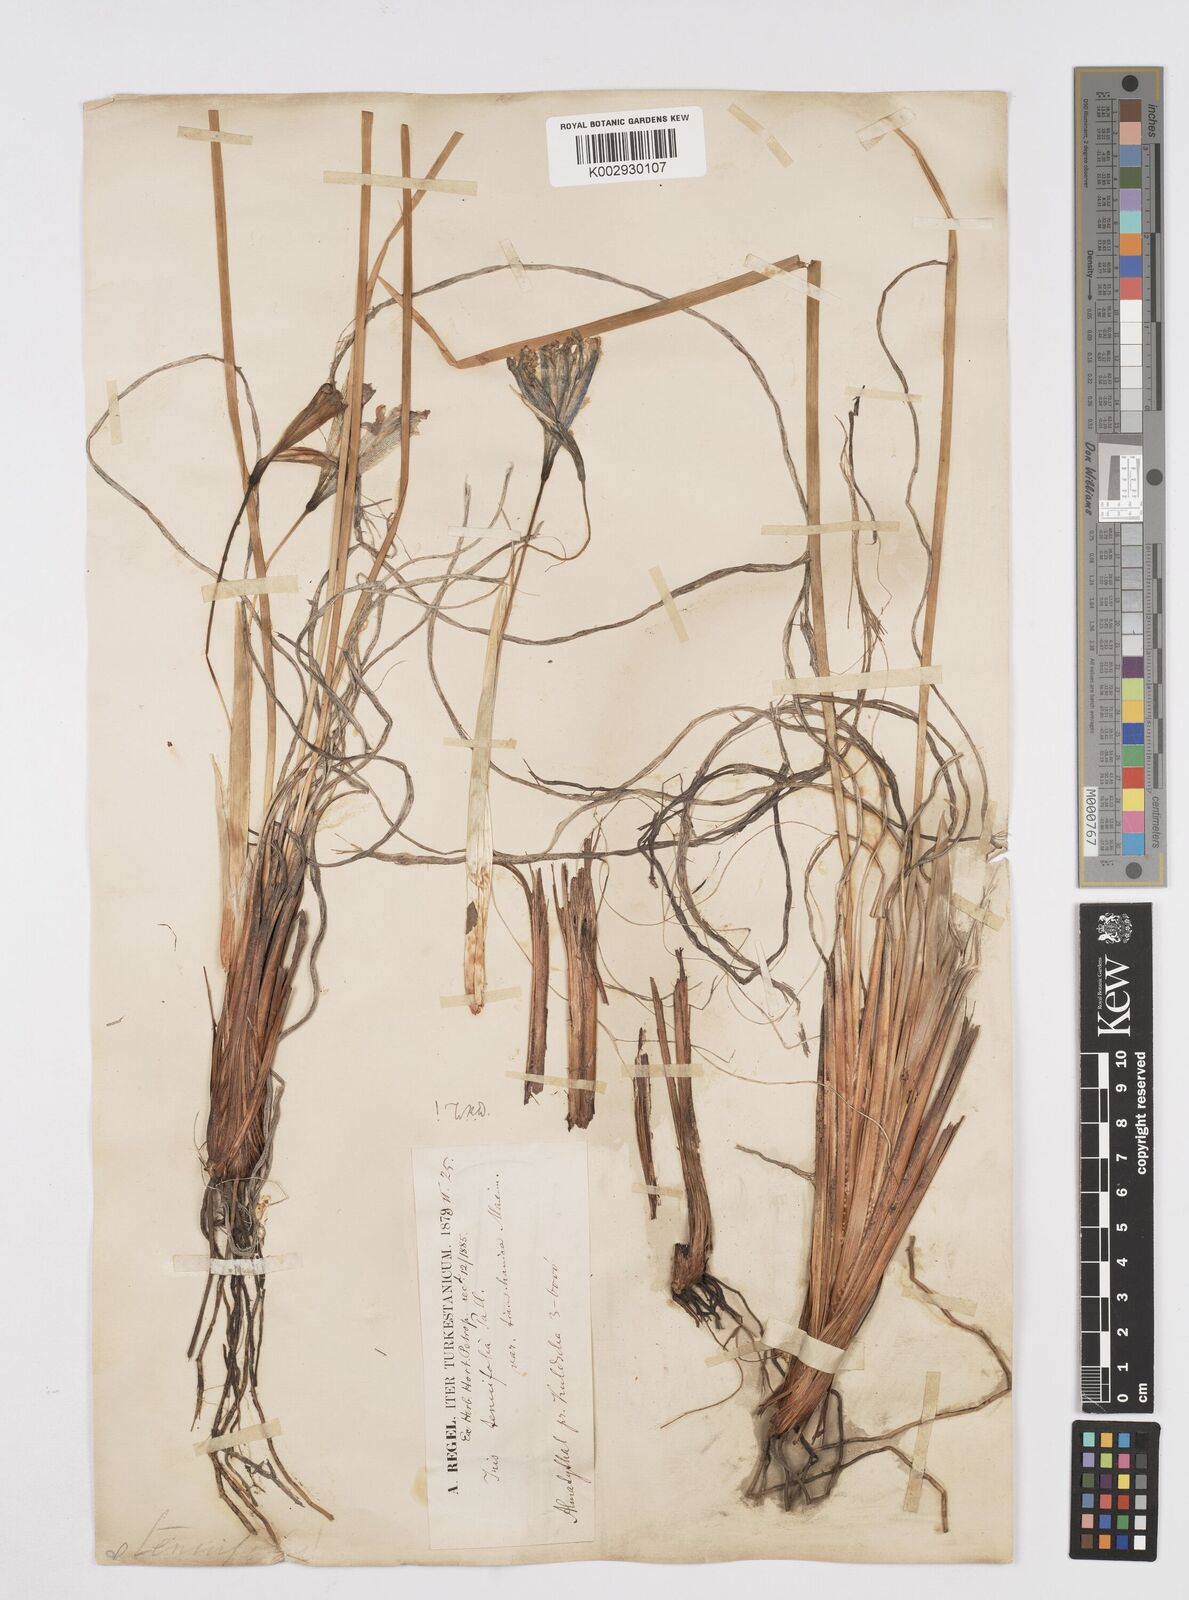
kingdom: Plantae
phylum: Tracheophyta
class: Liliopsida
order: Asparagales
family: Iridaceae
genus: Iris
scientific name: Iris tenuifolia
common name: Slender-leaf iris
